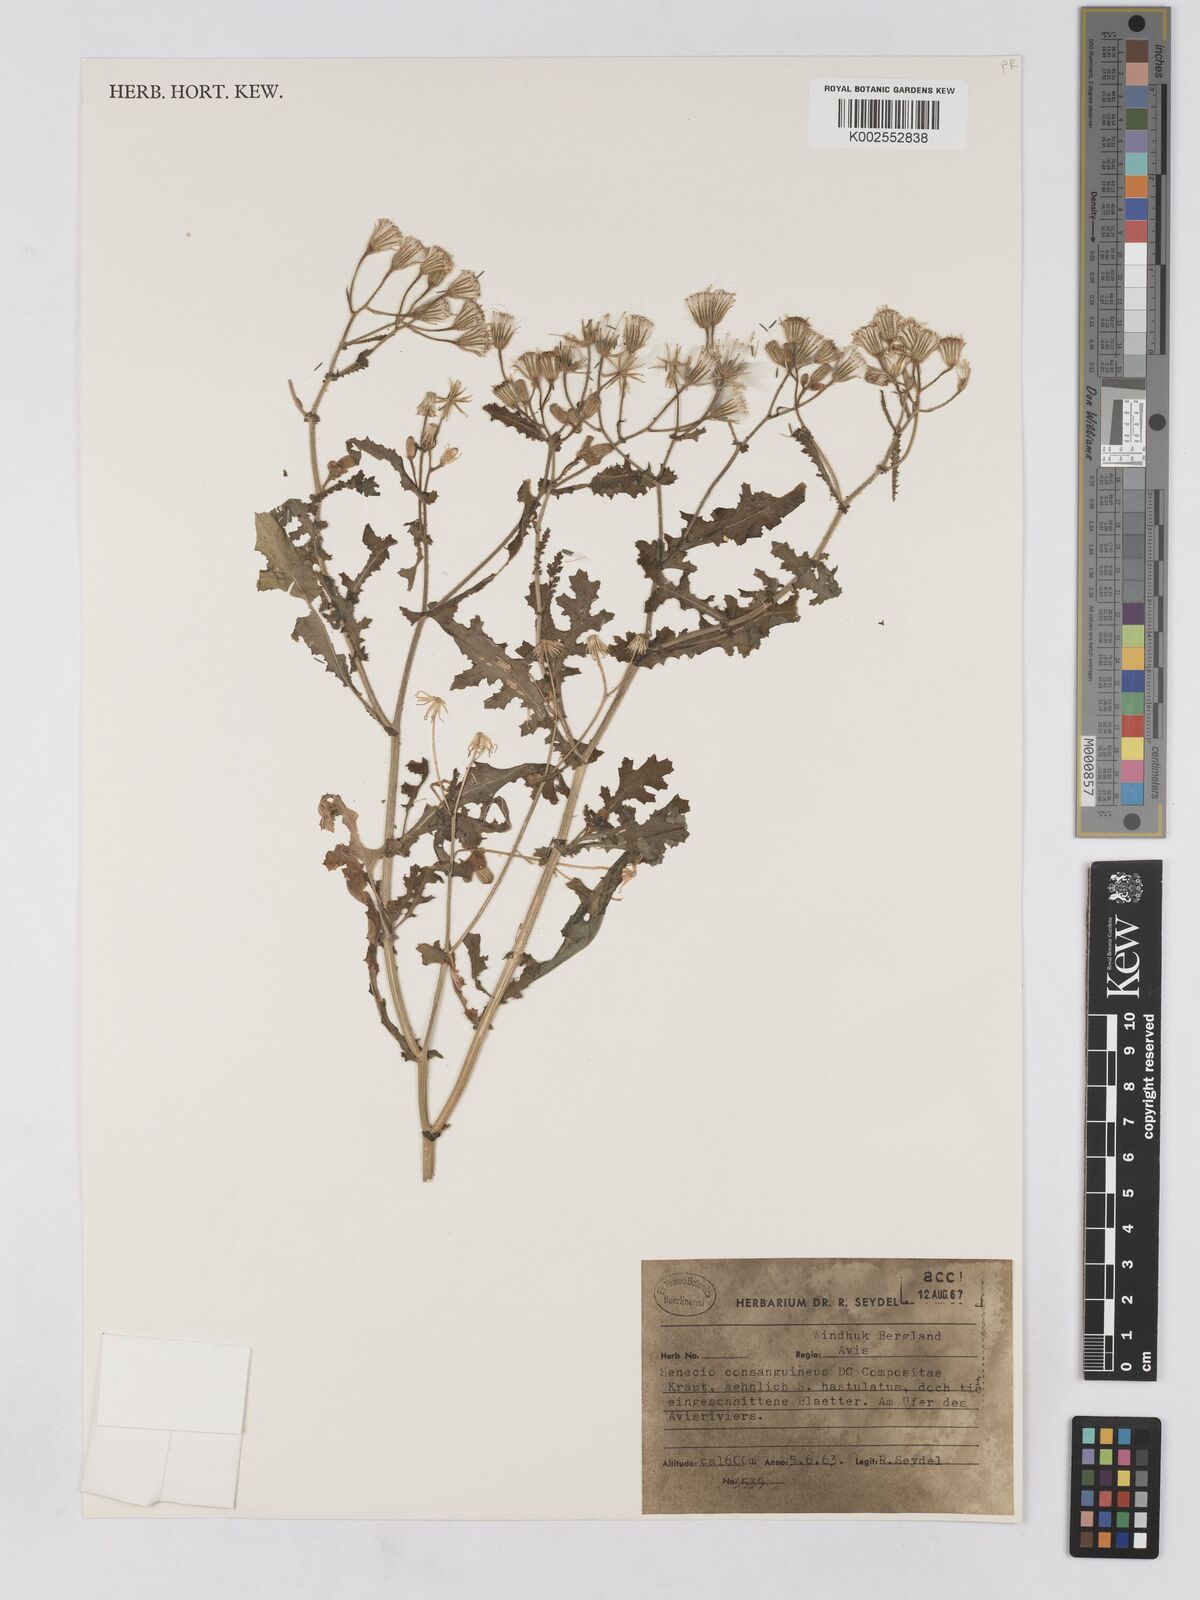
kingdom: Plantae
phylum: Tracheophyta
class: Magnoliopsida
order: Asterales
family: Asteraceae
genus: Senecio
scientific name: Senecio consanguineus
